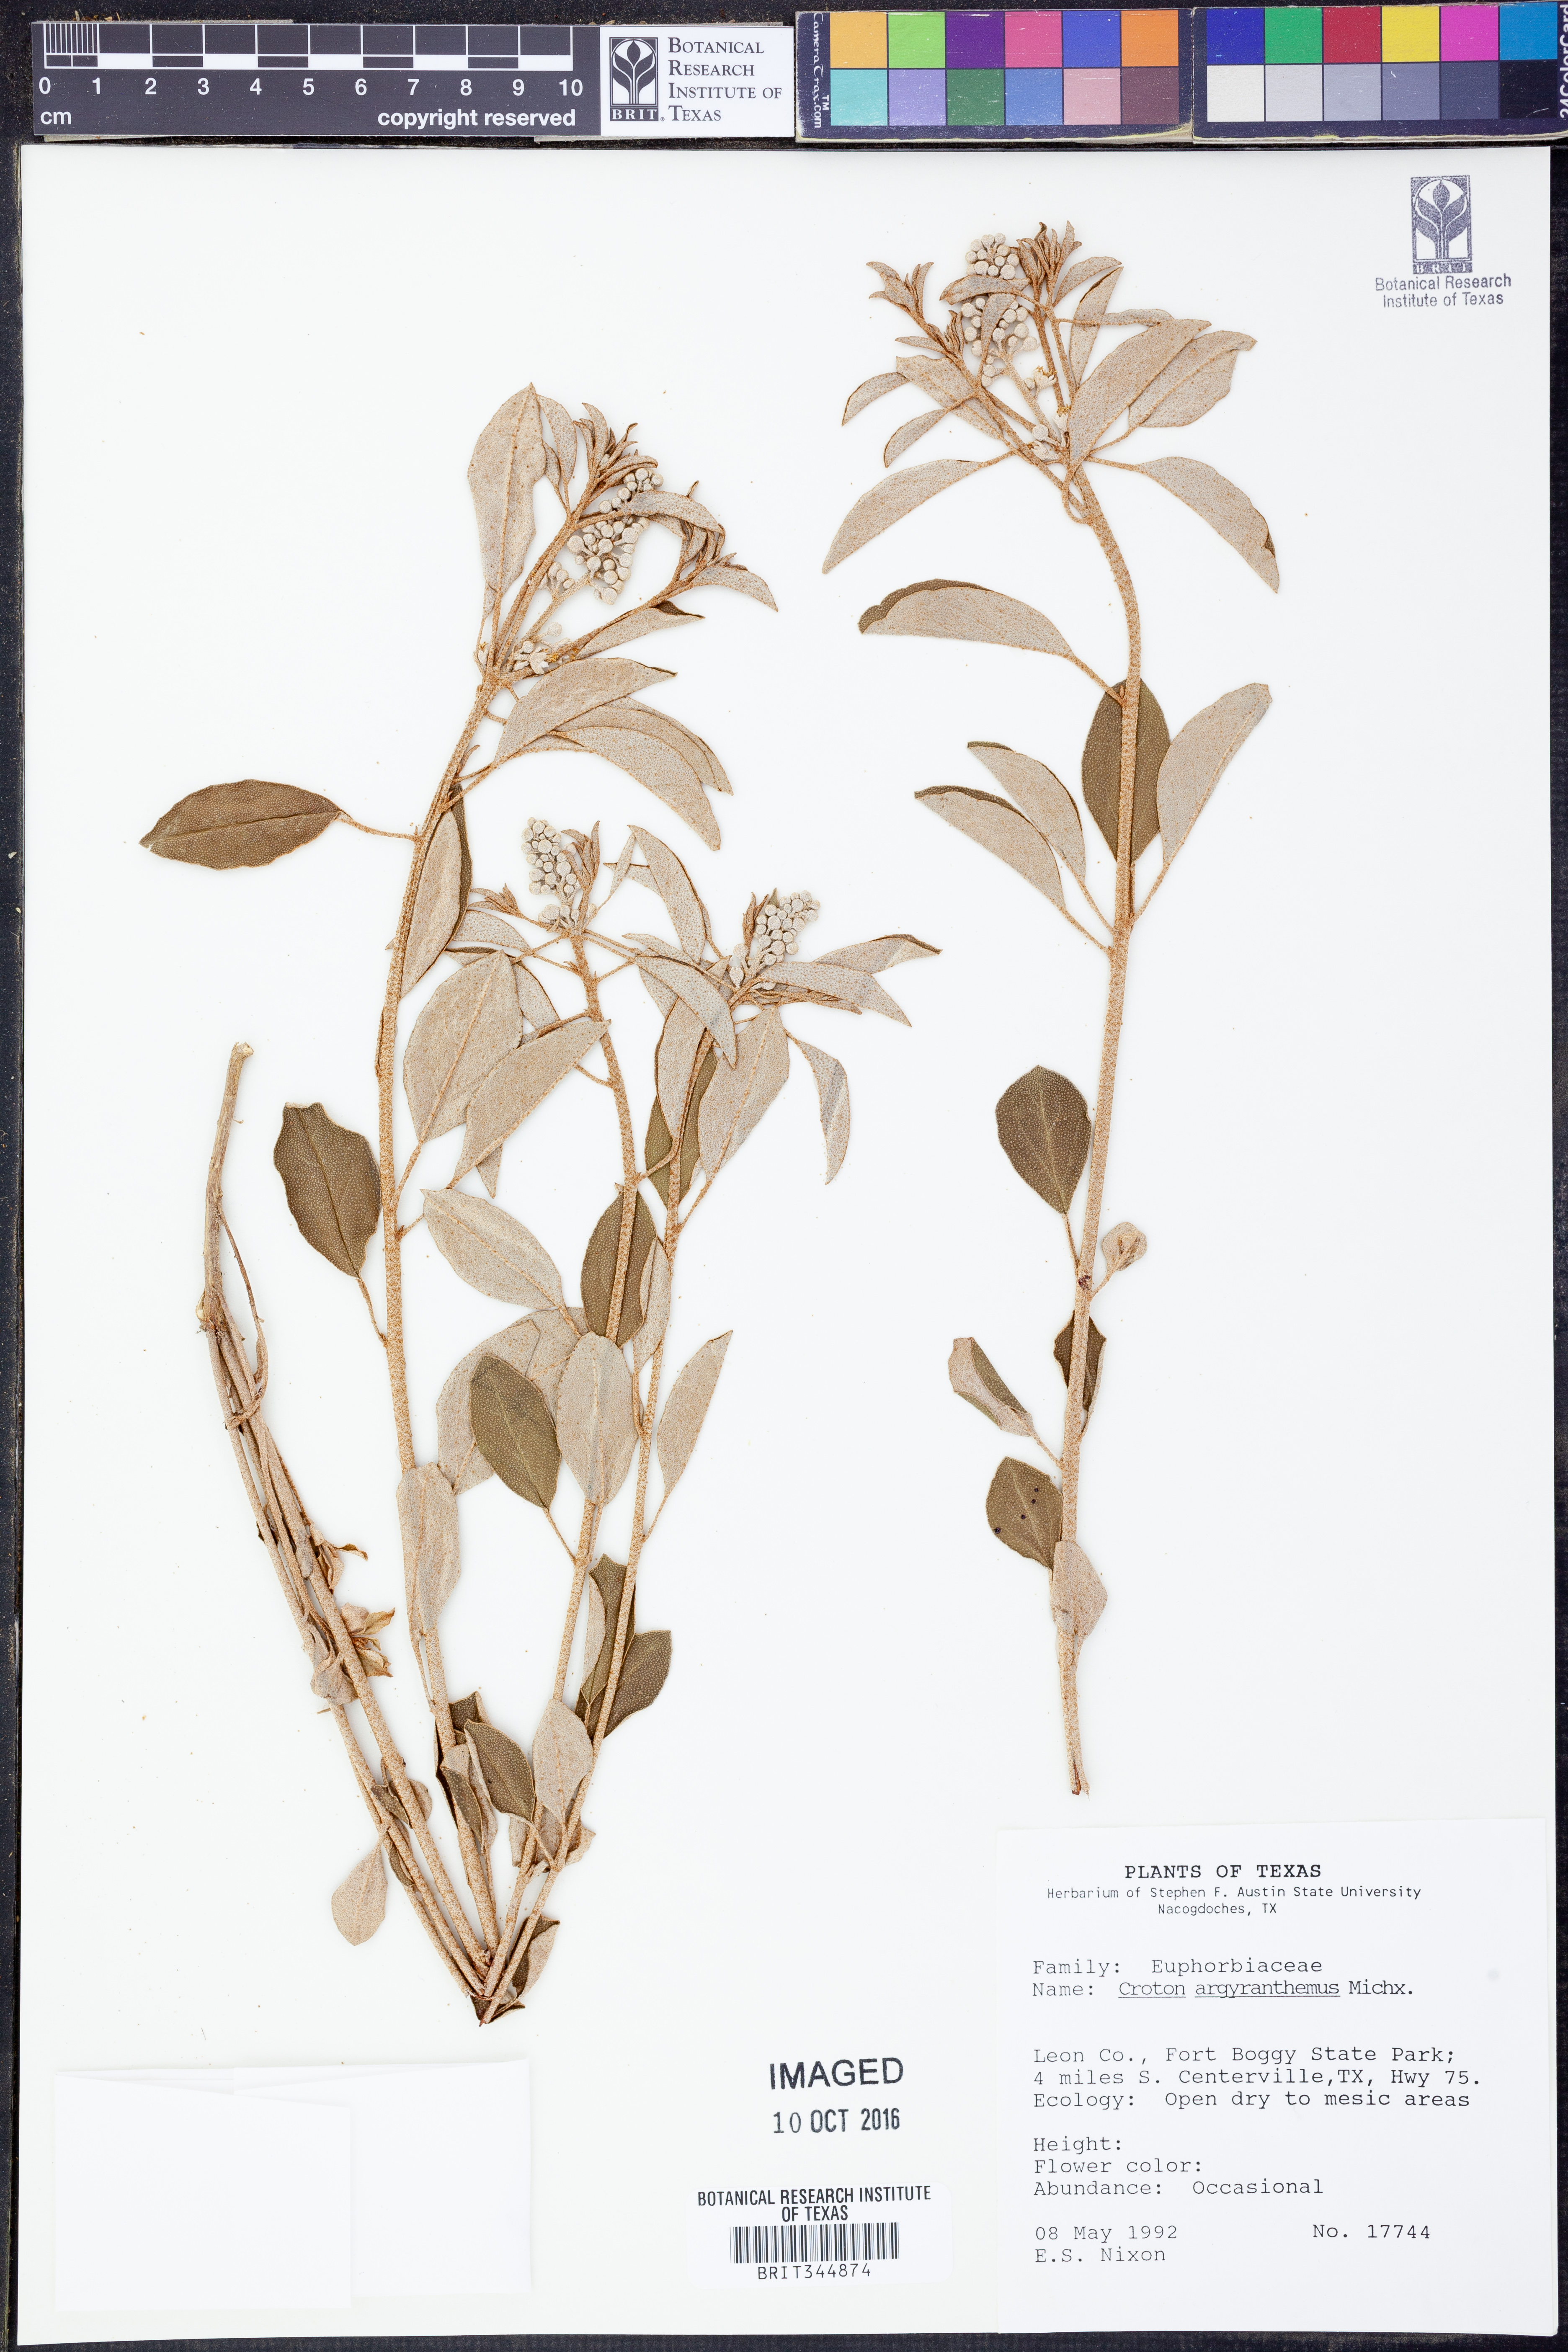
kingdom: Plantae
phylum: Tracheophyta
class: Magnoliopsida
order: Malpighiales
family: Euphorbiaceae
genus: Croton
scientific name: Croton argyranthemus
